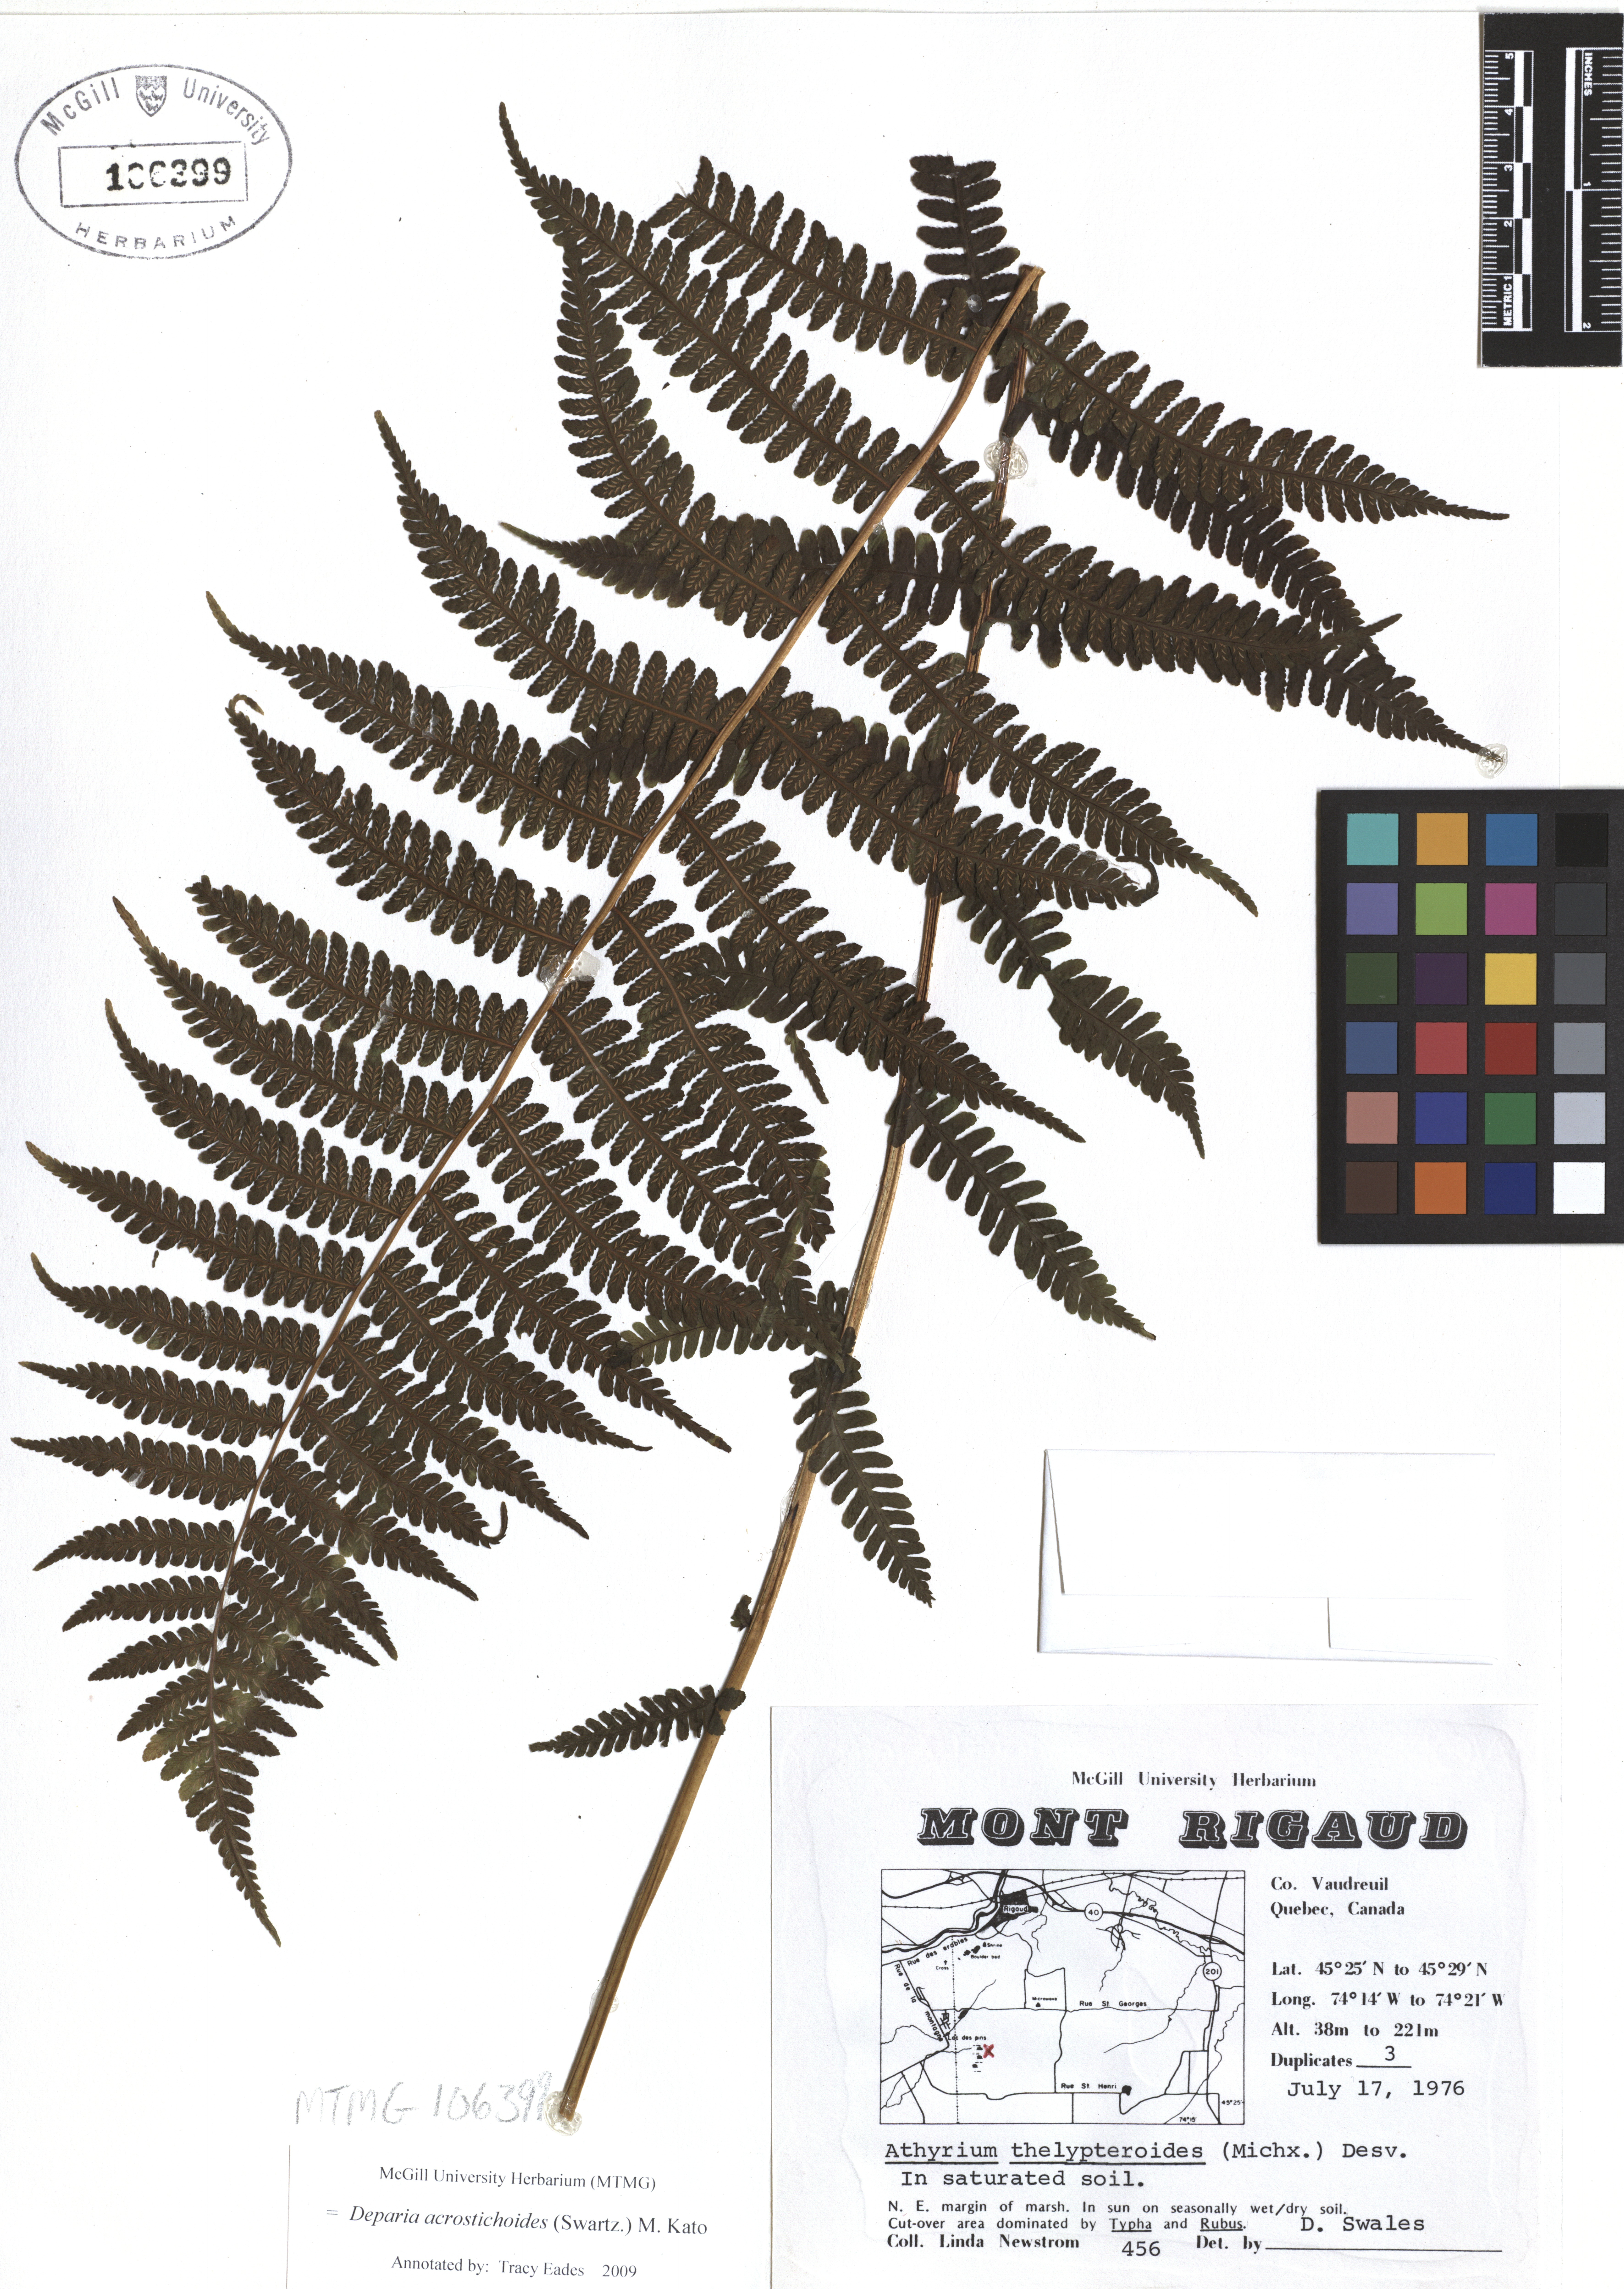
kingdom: Plantae
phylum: Tracheophyta
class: Polypodiopsida
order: Polypodiales
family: Athyriaceae
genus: Deparia
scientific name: Deparia acrostichoides
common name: Silver false spleenwort
